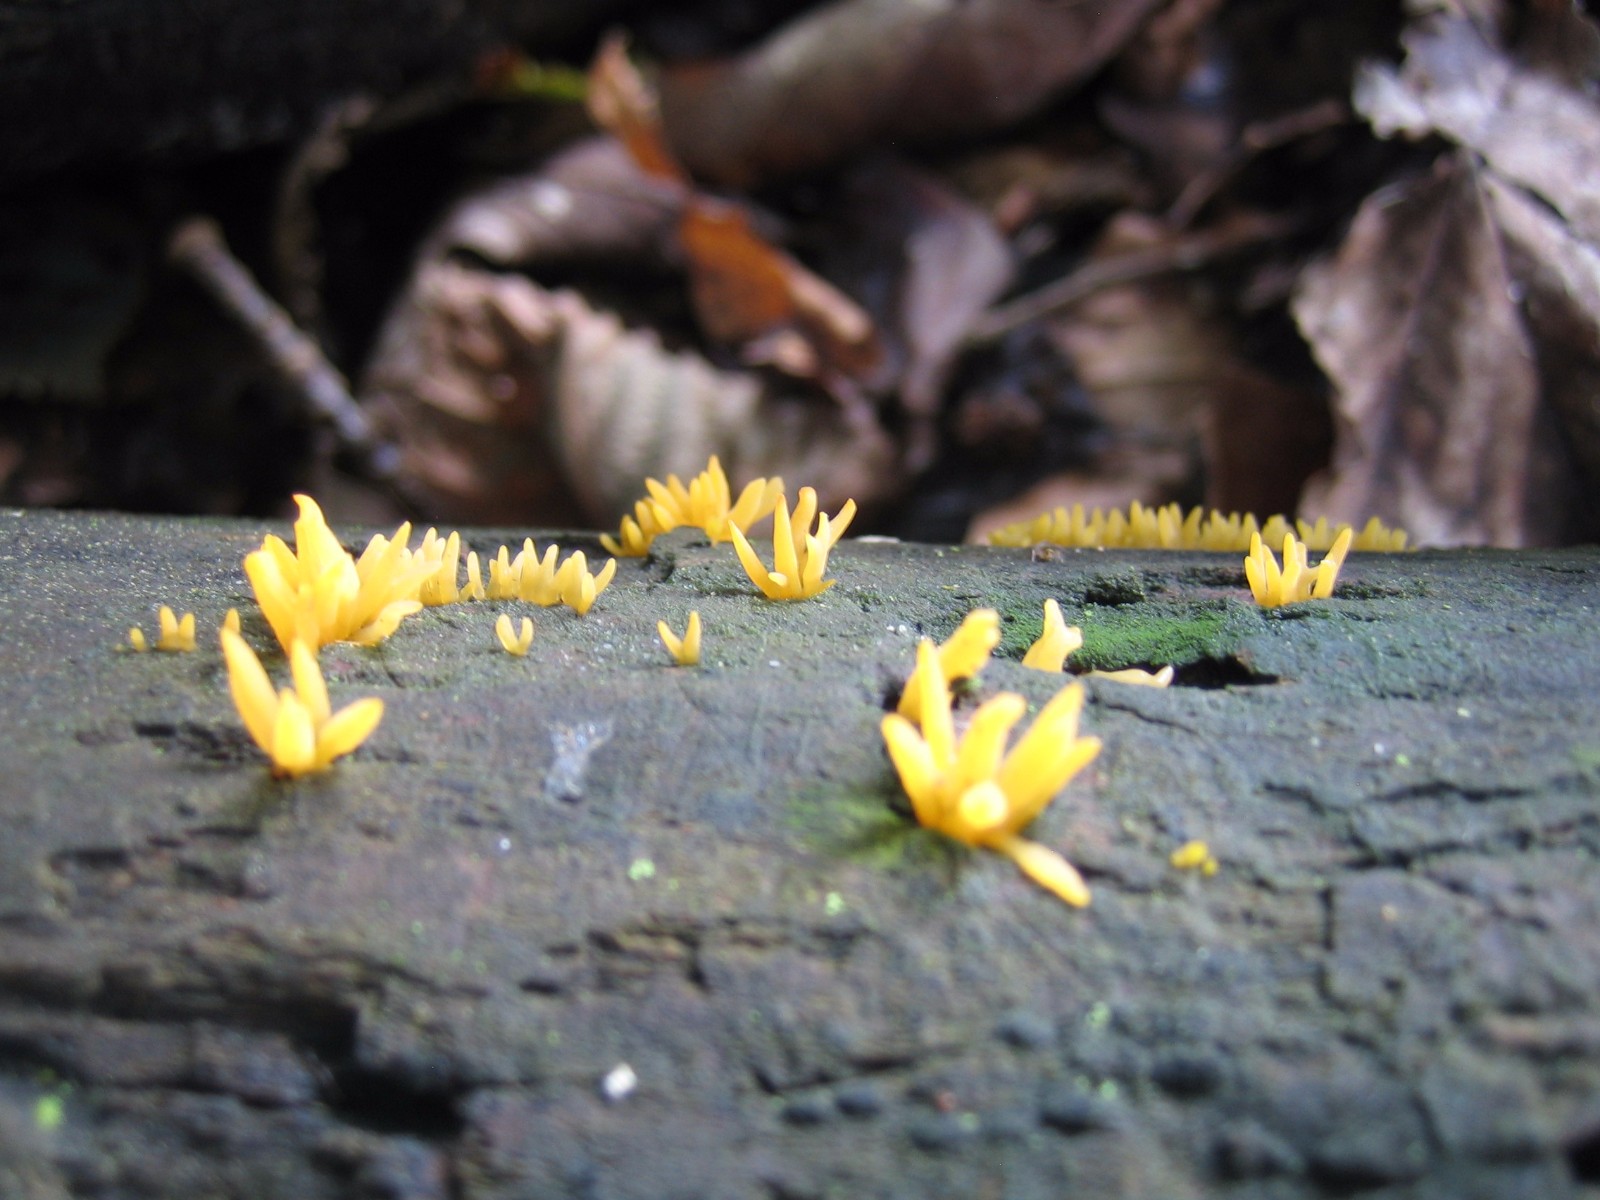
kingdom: Fungi
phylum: Basidiomycota
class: Dacrymycetes
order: Dacrymycetales
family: Dacrymycetaceae
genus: Calocera
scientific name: Calocera cornea
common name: liden guldgaffel
